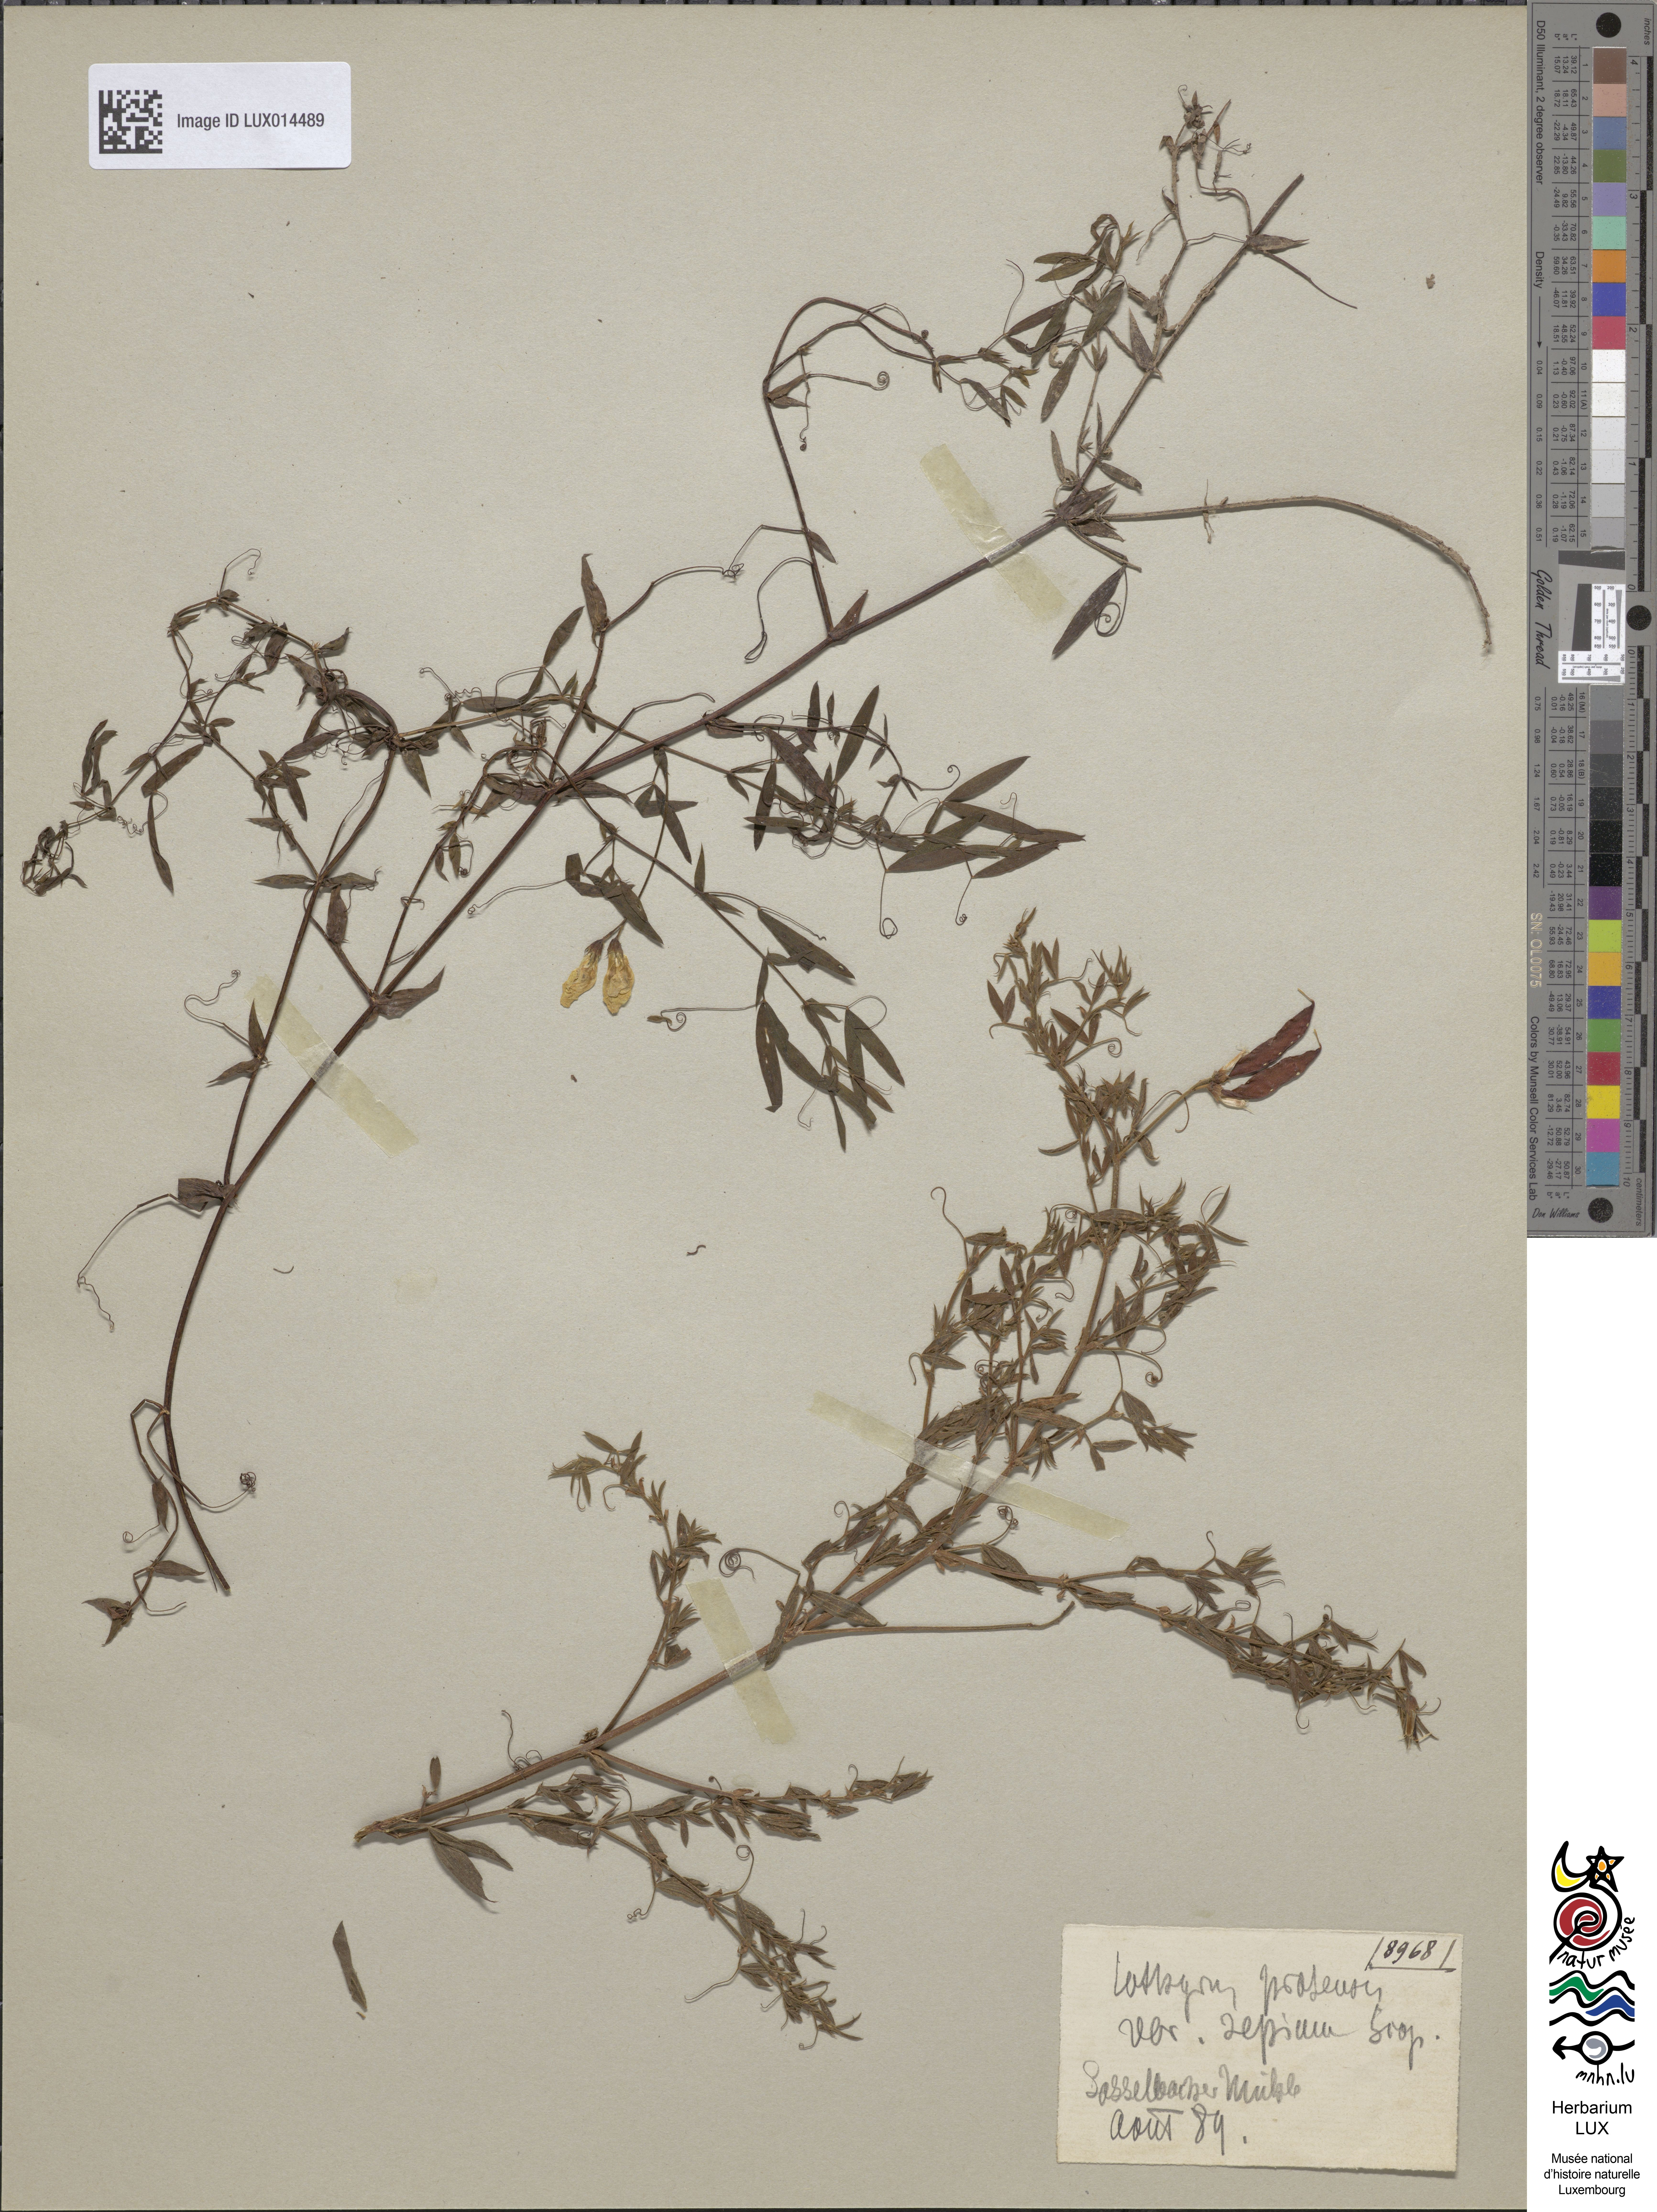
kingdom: Plantae
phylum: Tracheophyta
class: Magnoliopsida
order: Fabales
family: Fabaceae
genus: Lathyrus
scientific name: Lathyrus pratensis
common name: Meadow vetchling
